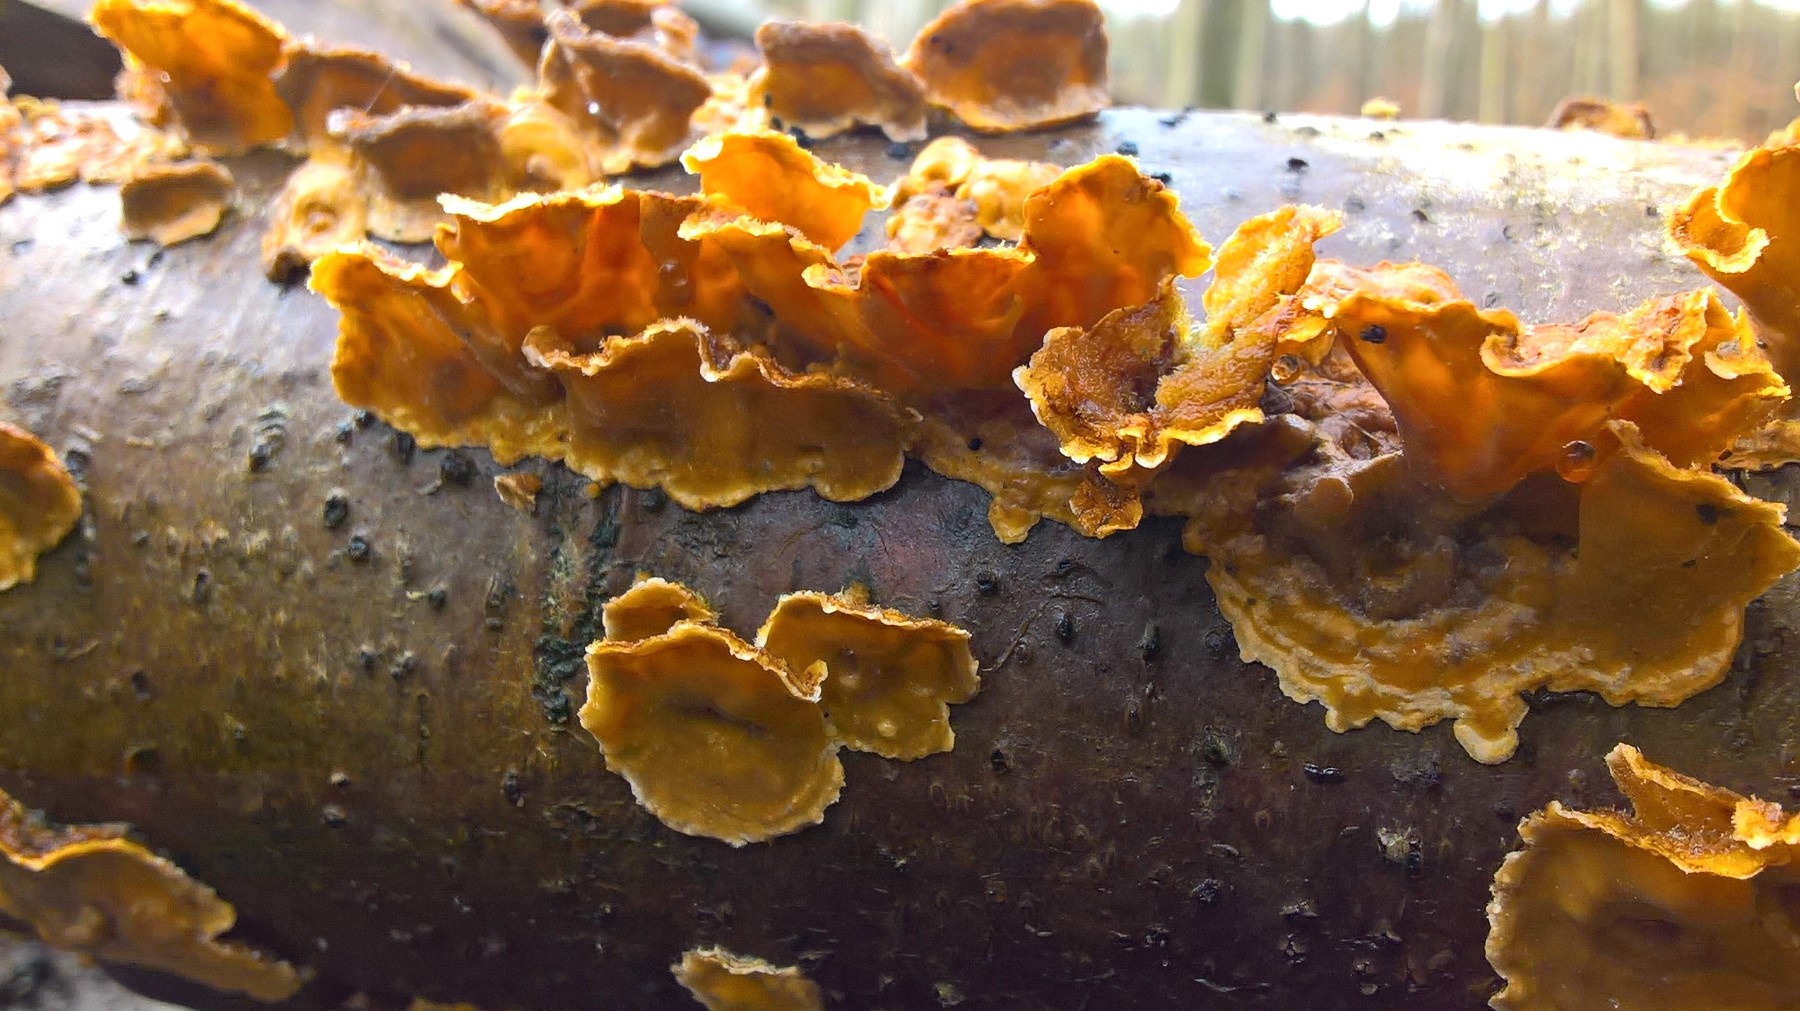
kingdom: Fungi
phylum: Basidiomycota
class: Agaricomycetes
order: Russulales
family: Stereaceae
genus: Stereum
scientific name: Stereum hirsutum
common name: håret lædersvamp
